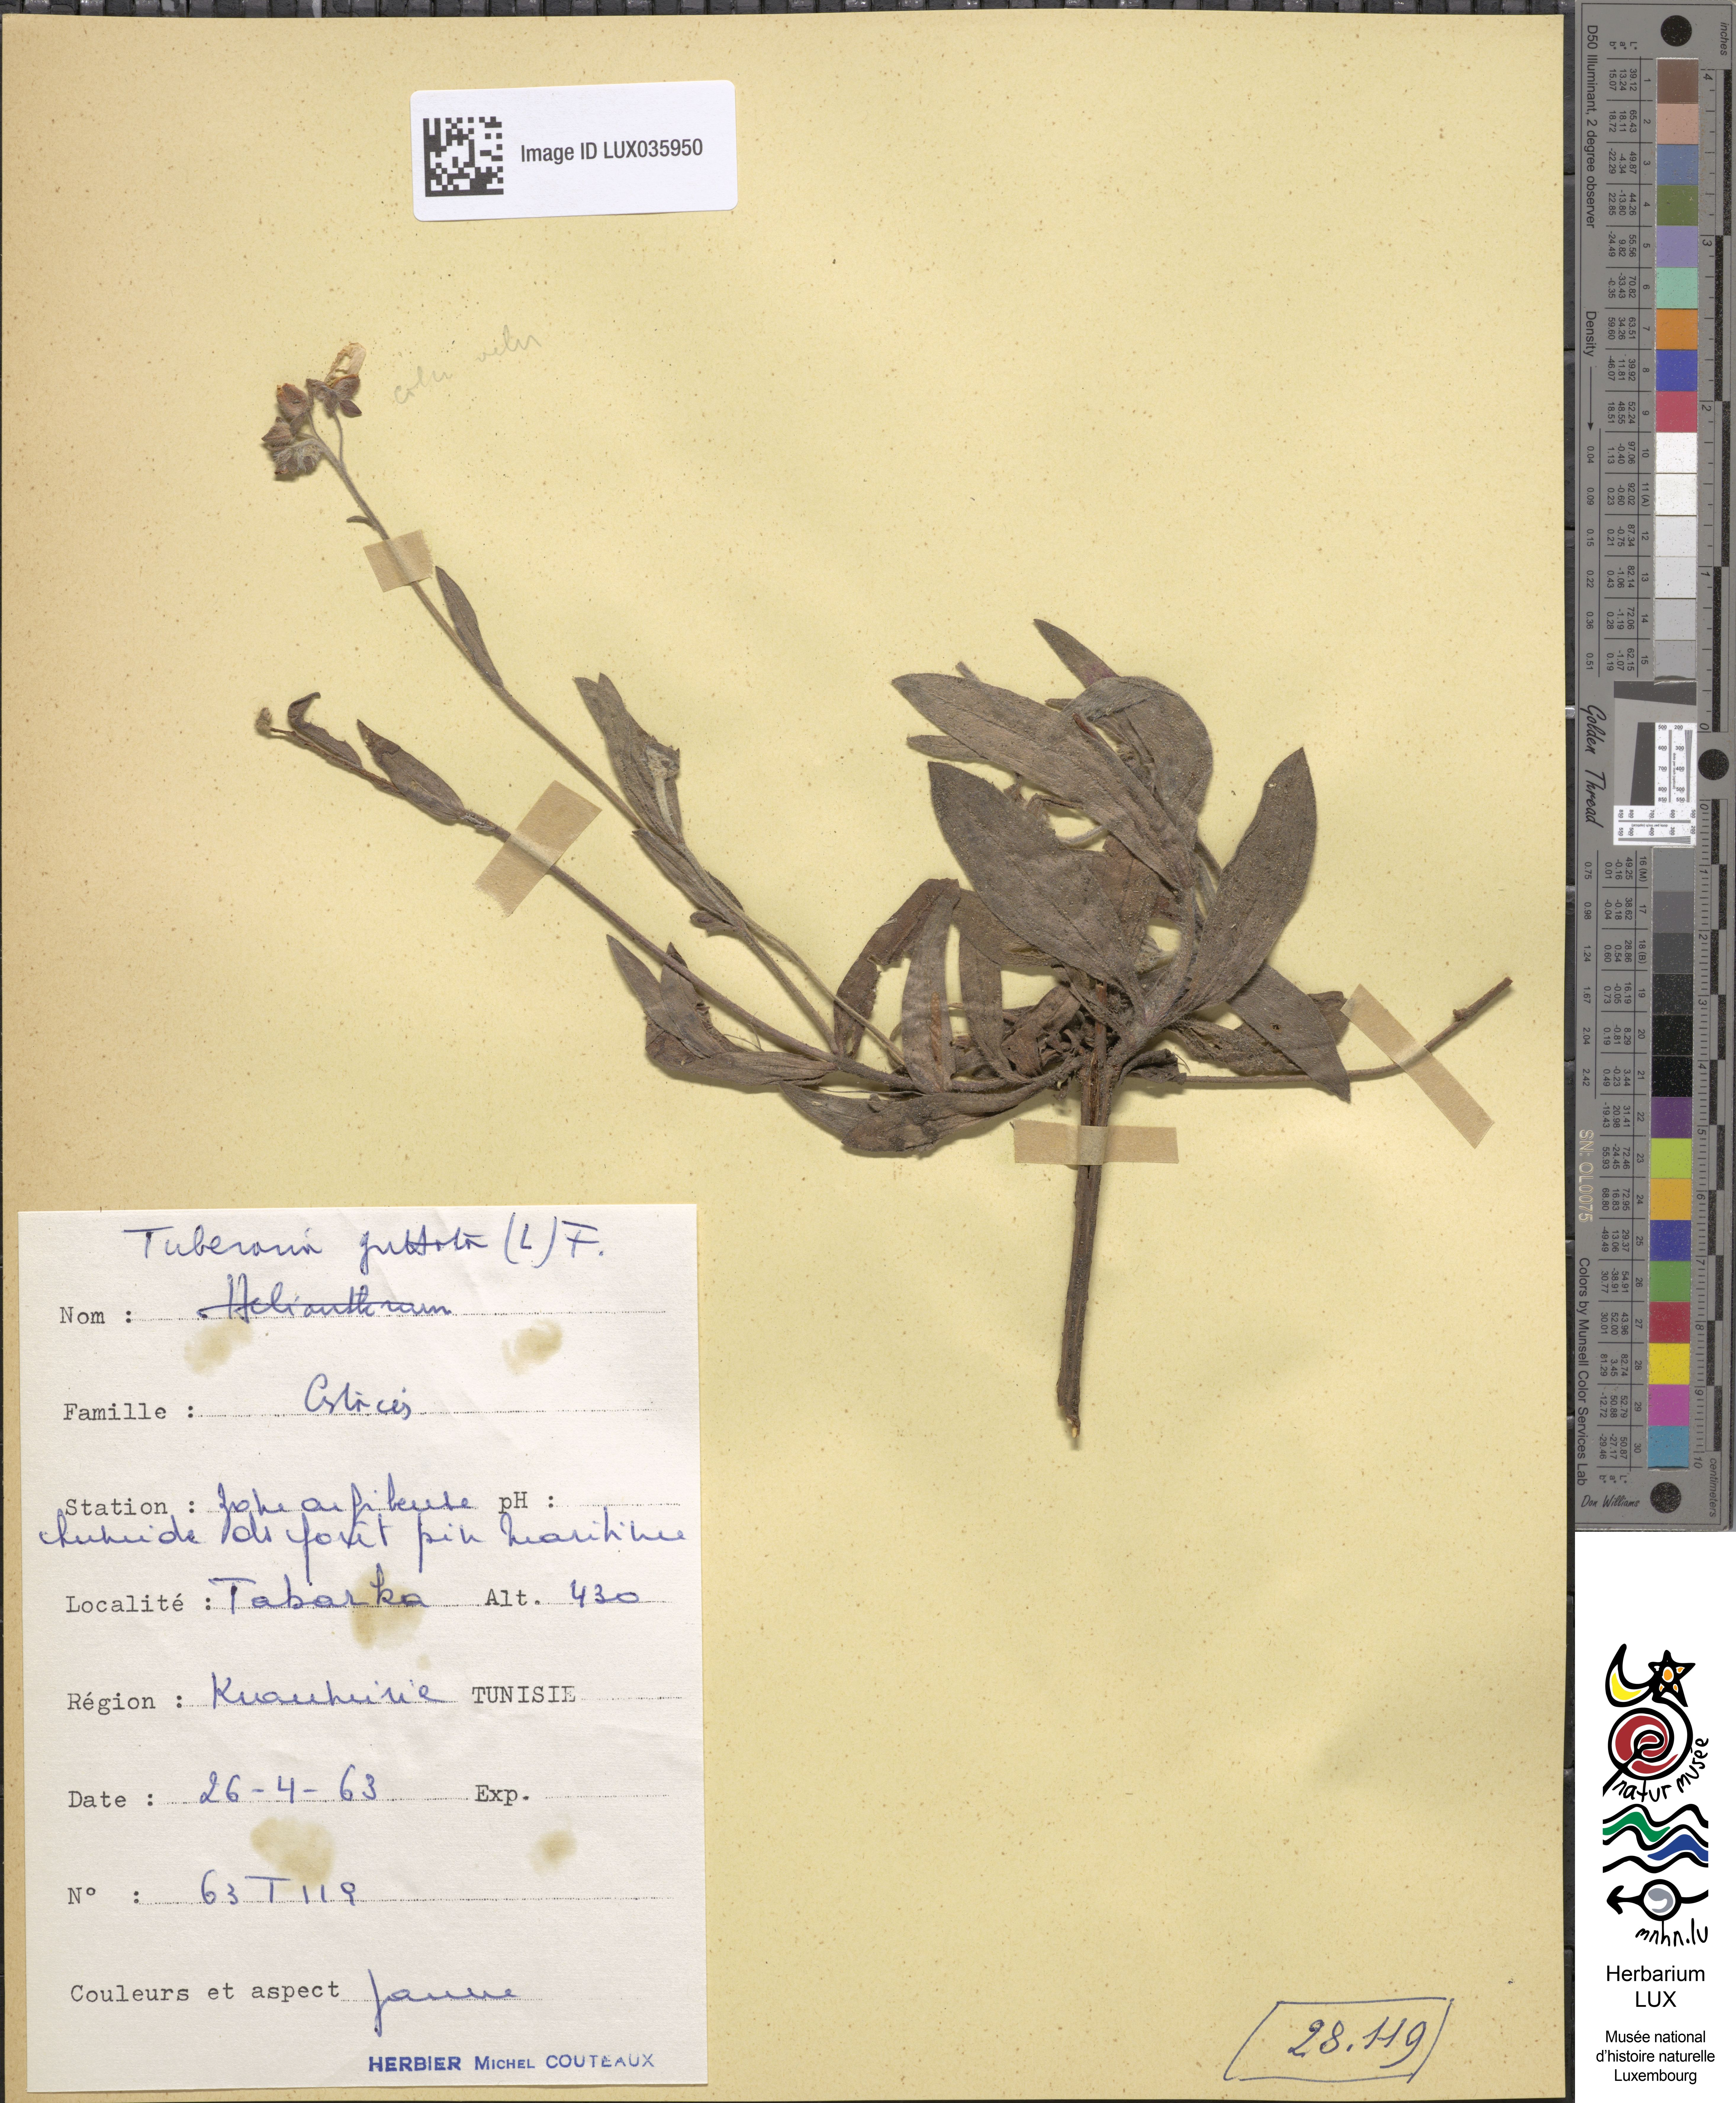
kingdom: Plantae
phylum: Tracheophyta
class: Magnoliopsida
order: Malvales
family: Cistaceae
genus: Tuberaria
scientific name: Tuberaria guttata
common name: Spotted rock-rose
